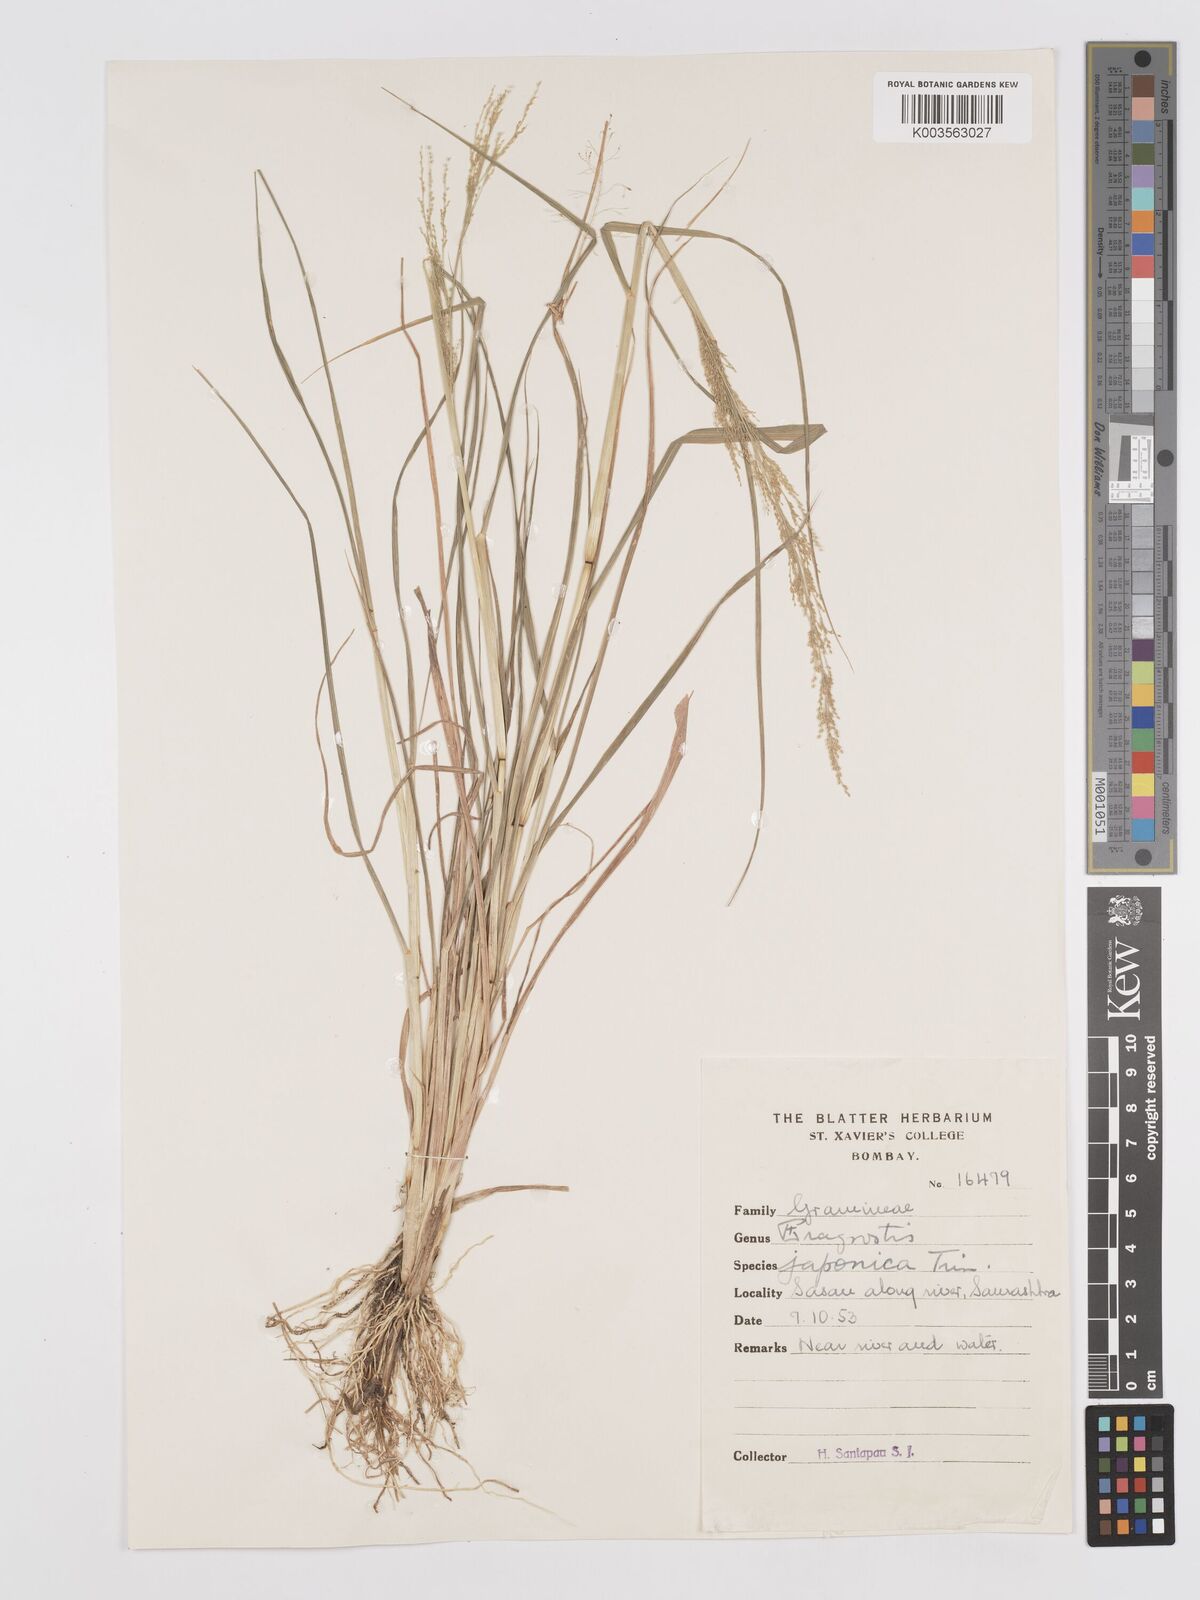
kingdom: Plantae
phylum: Tracheophyta
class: Liliopsida
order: Poales
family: Poaceae
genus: Eragrostis
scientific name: Eragrostis japonica
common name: Pond lovegrass
